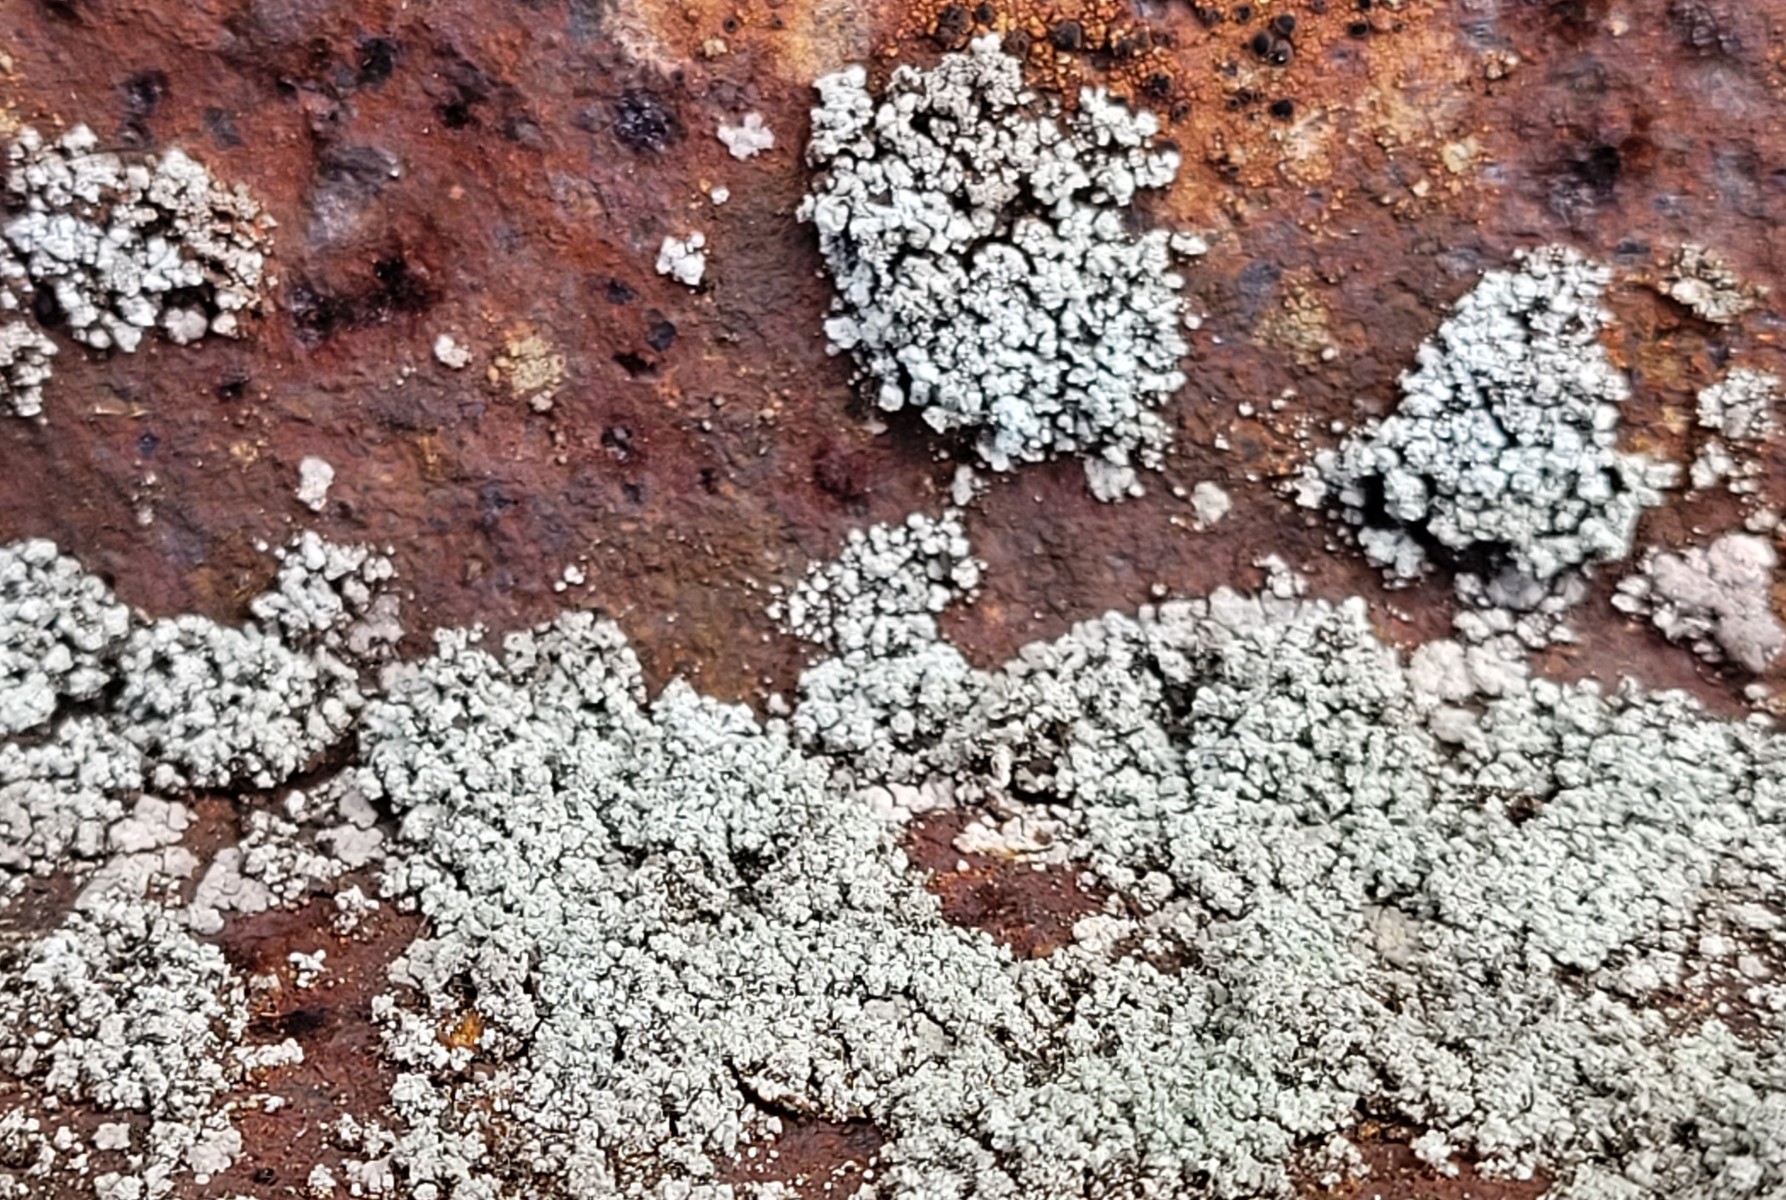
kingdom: Fungi
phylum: Ascomycota
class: Lecanoromycetes
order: Lecanorales
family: Stereocaulaceae
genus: Stereocaulon
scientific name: Stereocaulon nanodes
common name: liden korallav
